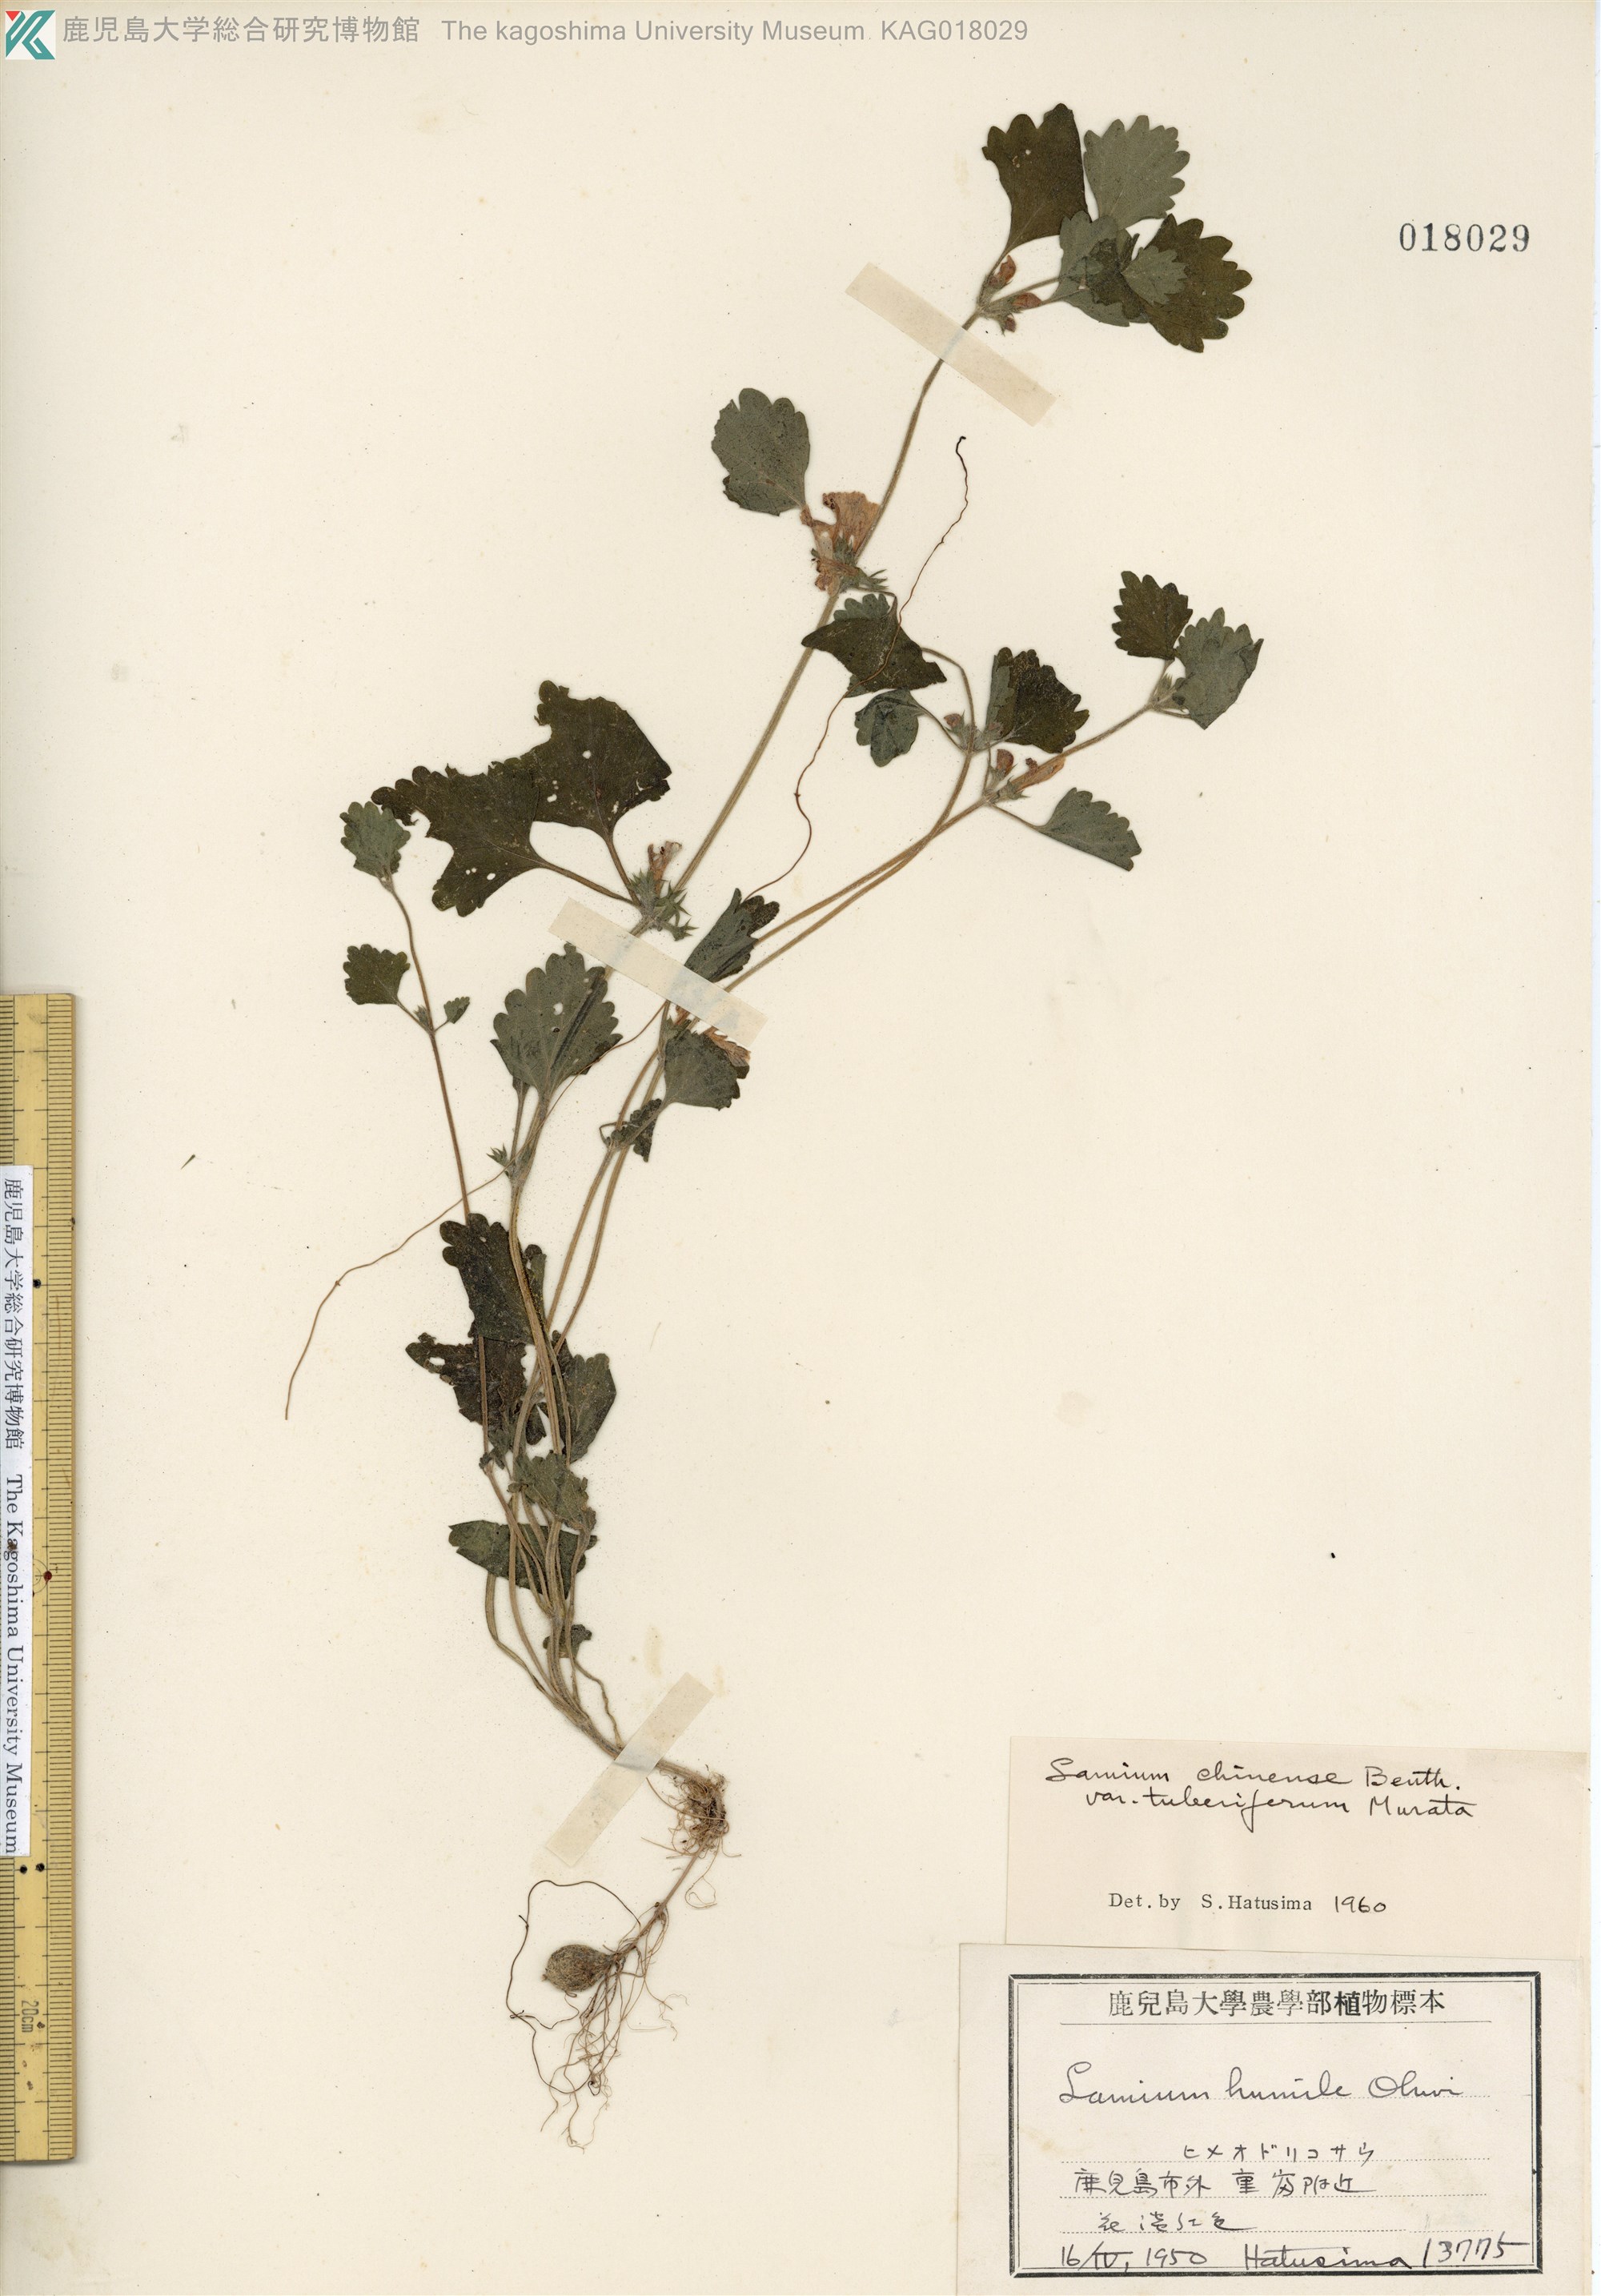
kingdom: Plantae
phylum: Tracheophyta
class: Magnoliopsida
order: Lamiales
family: Lamiaceae
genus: Matsumurella
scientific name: Matsumurella tuberifera
